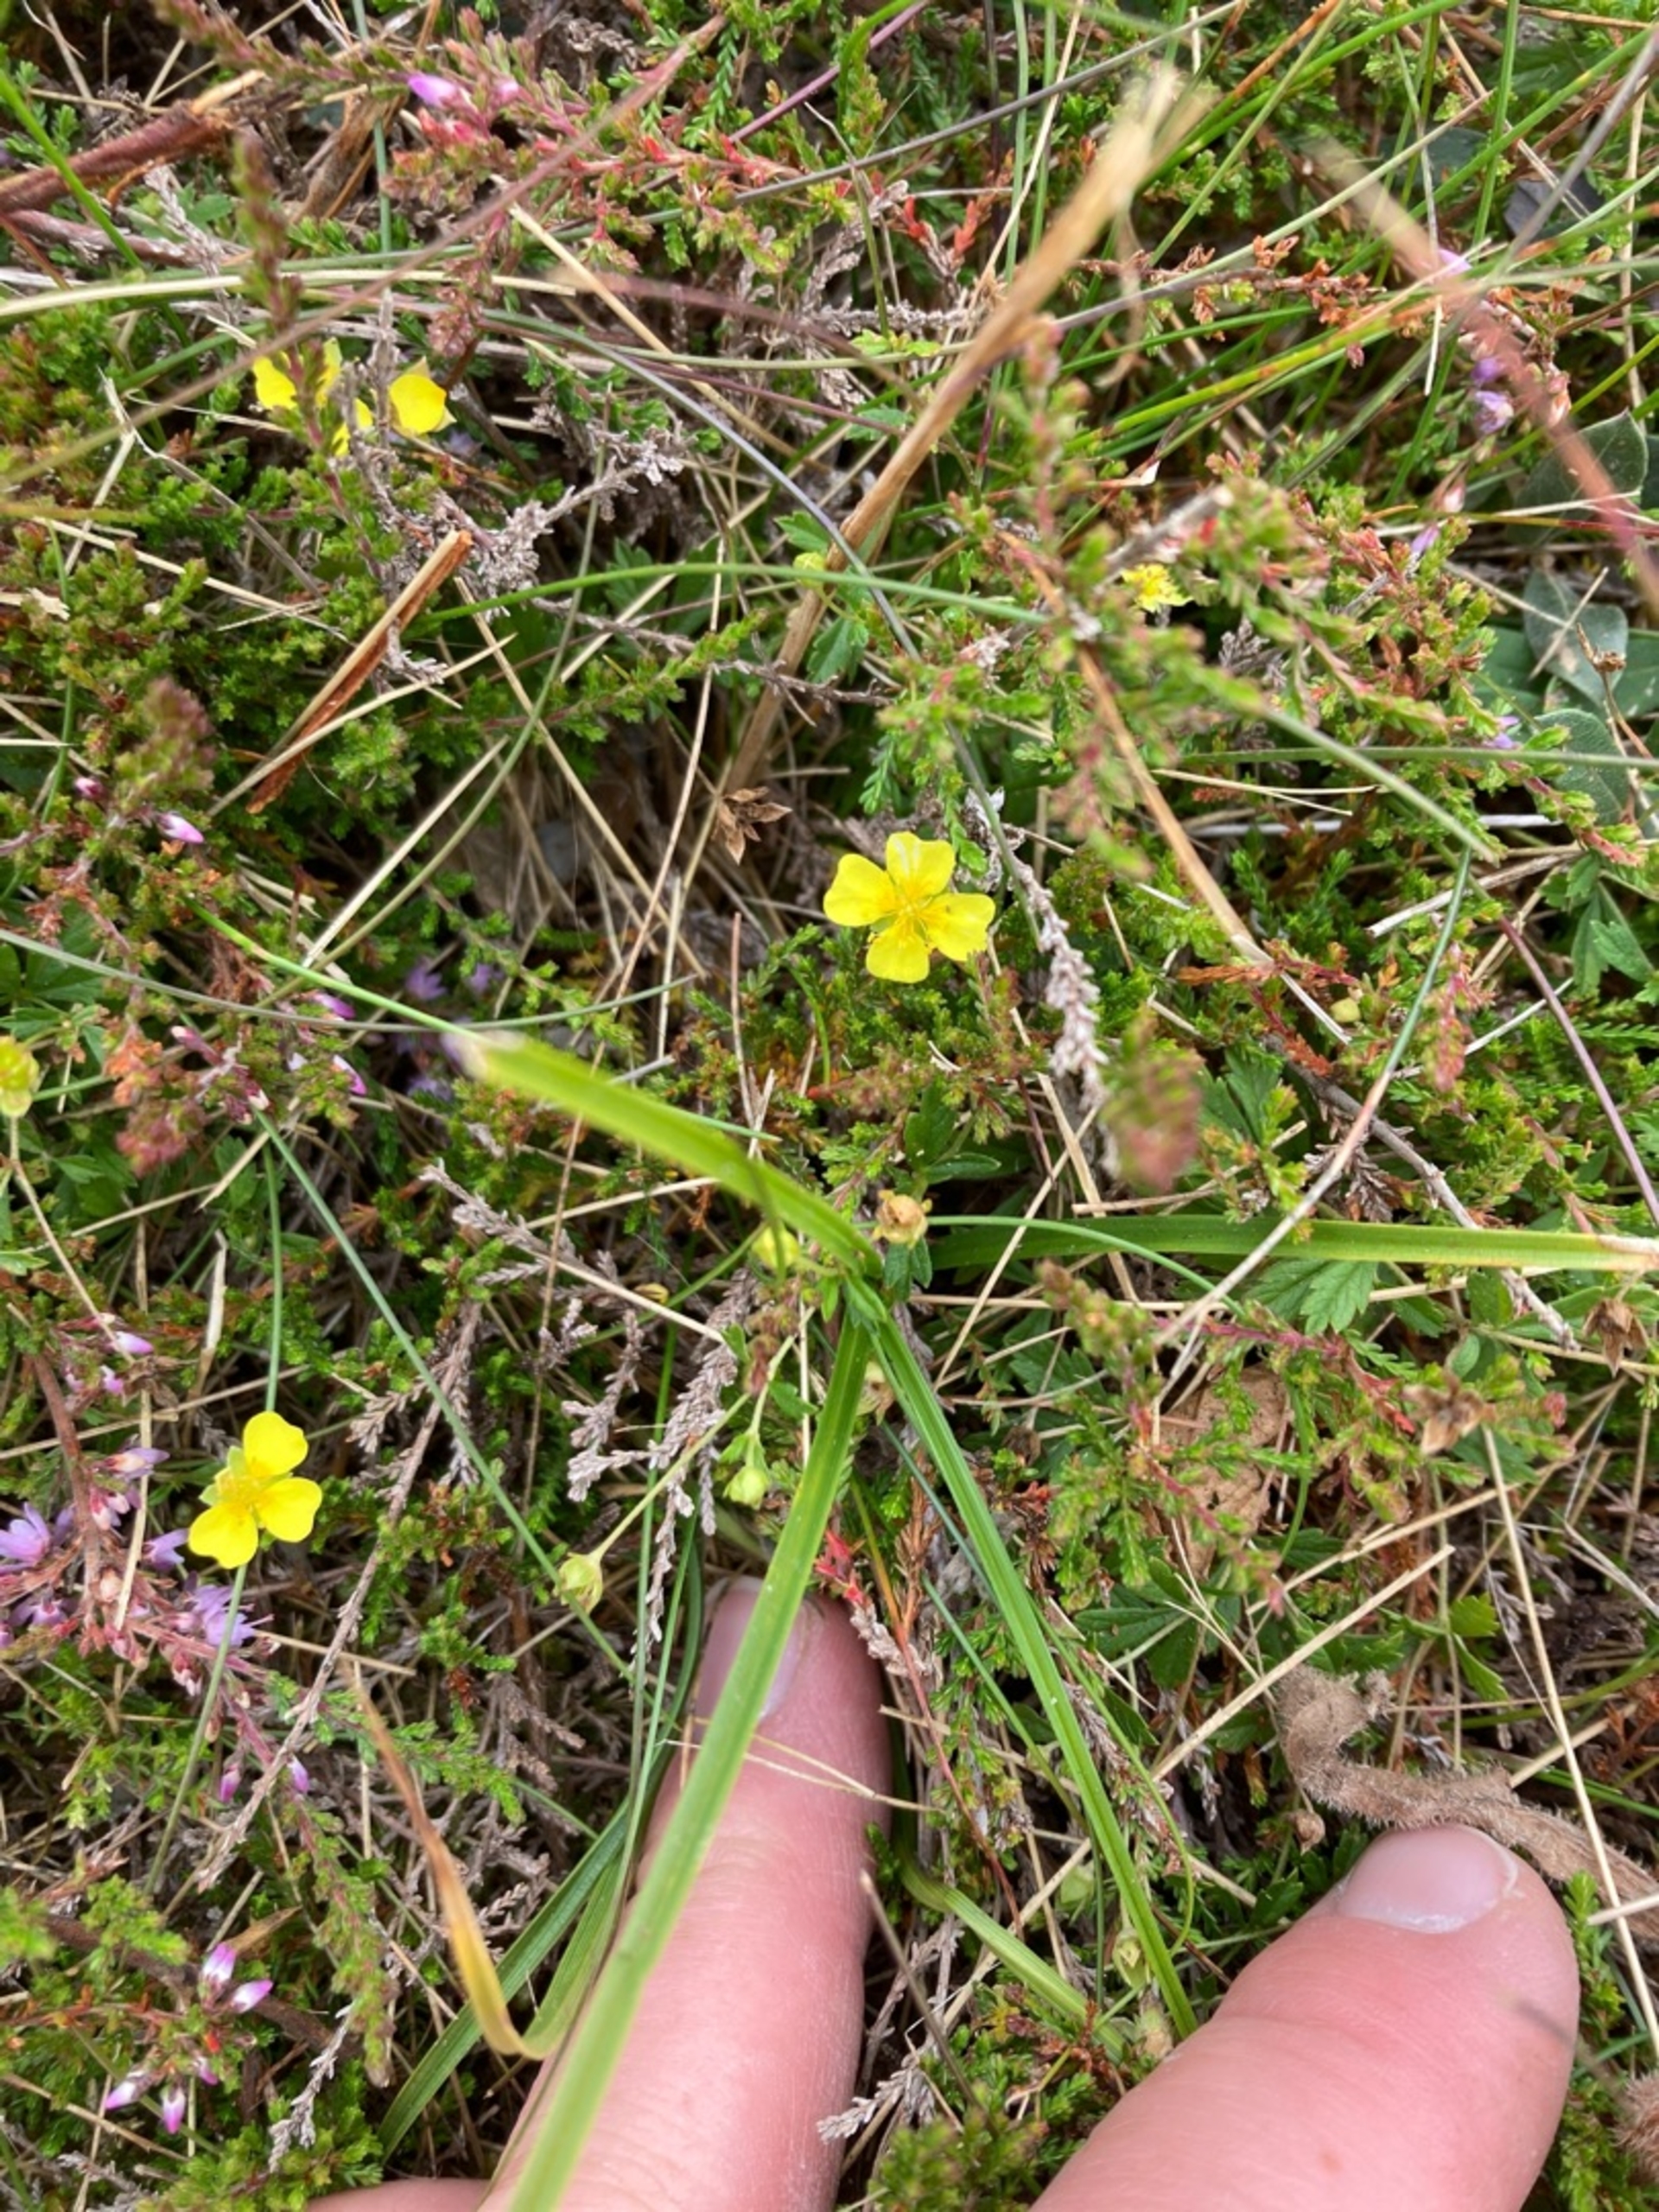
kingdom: Plantae
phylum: Tracheophyta
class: Magnoliopsida
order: Rosales
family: Rosaceae
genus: Potentilla
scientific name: Potentilla erecta
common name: Tormentil
